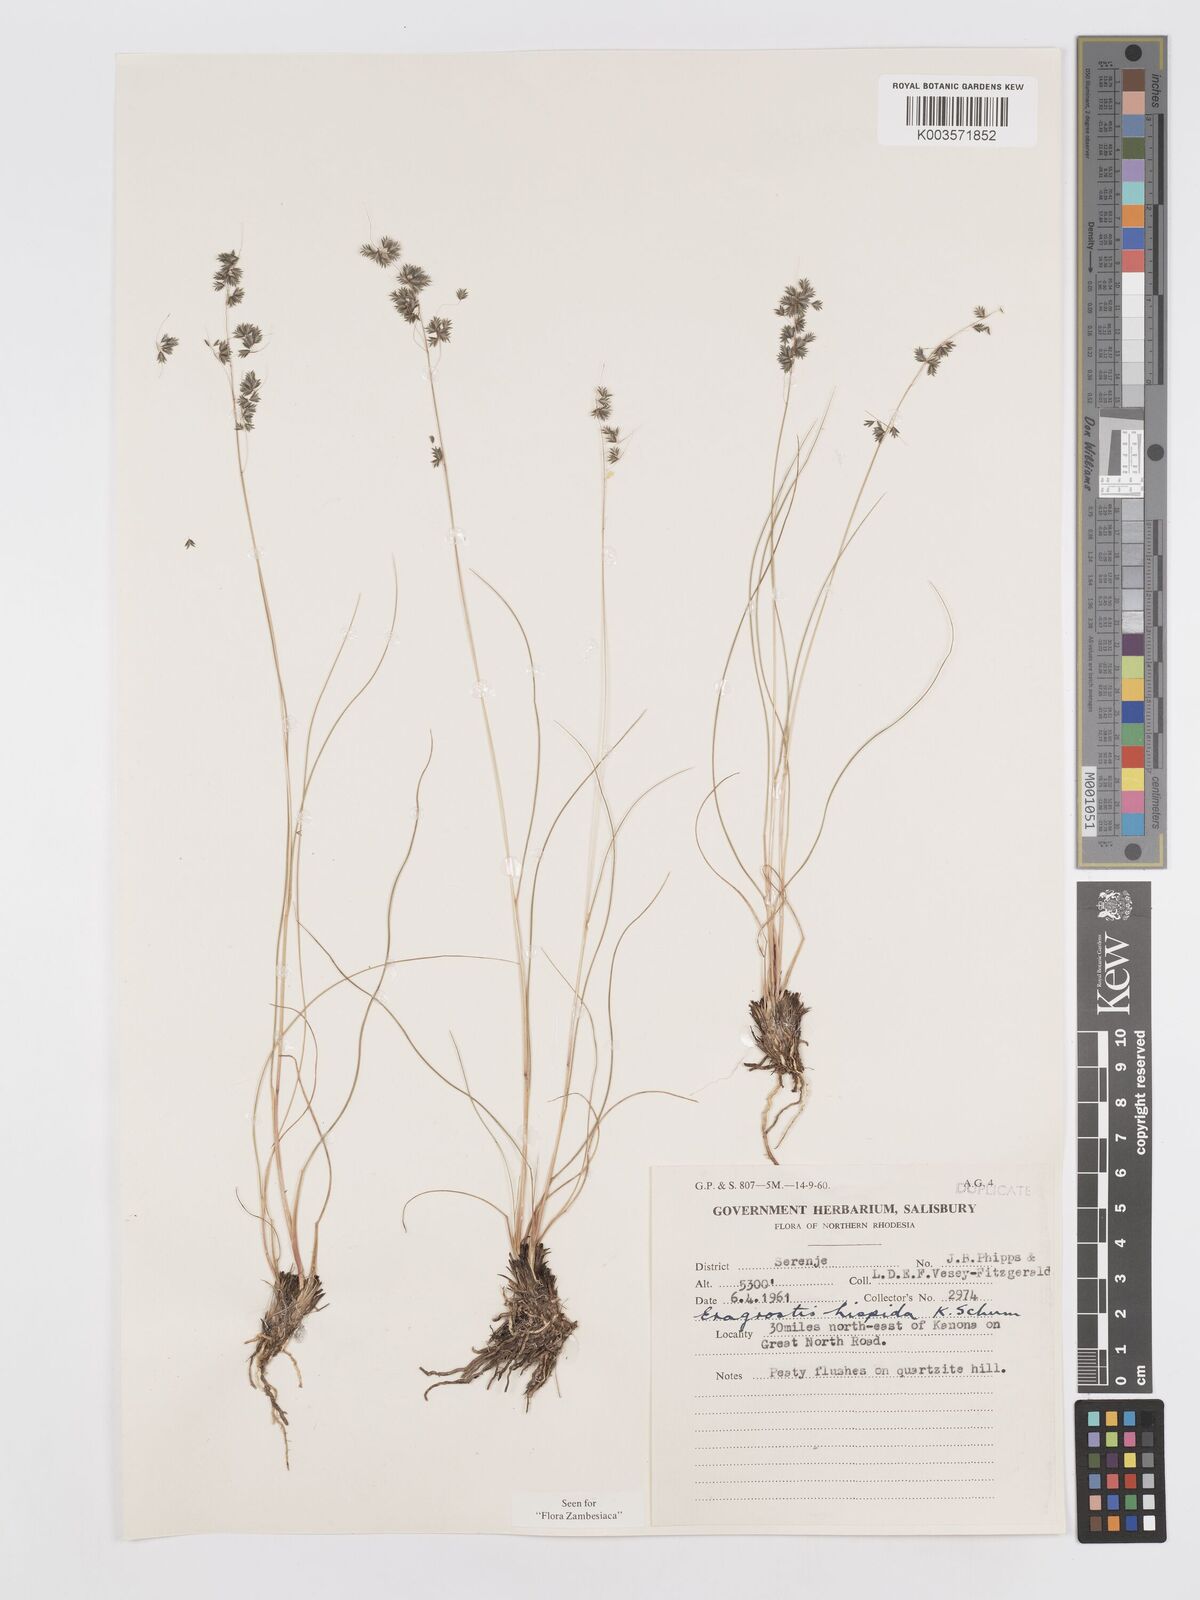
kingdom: Plantae
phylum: Tracheophyta
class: Liliopsida
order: Poales
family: Poaceae
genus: Eragrostis
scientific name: Eragrostis hispida
